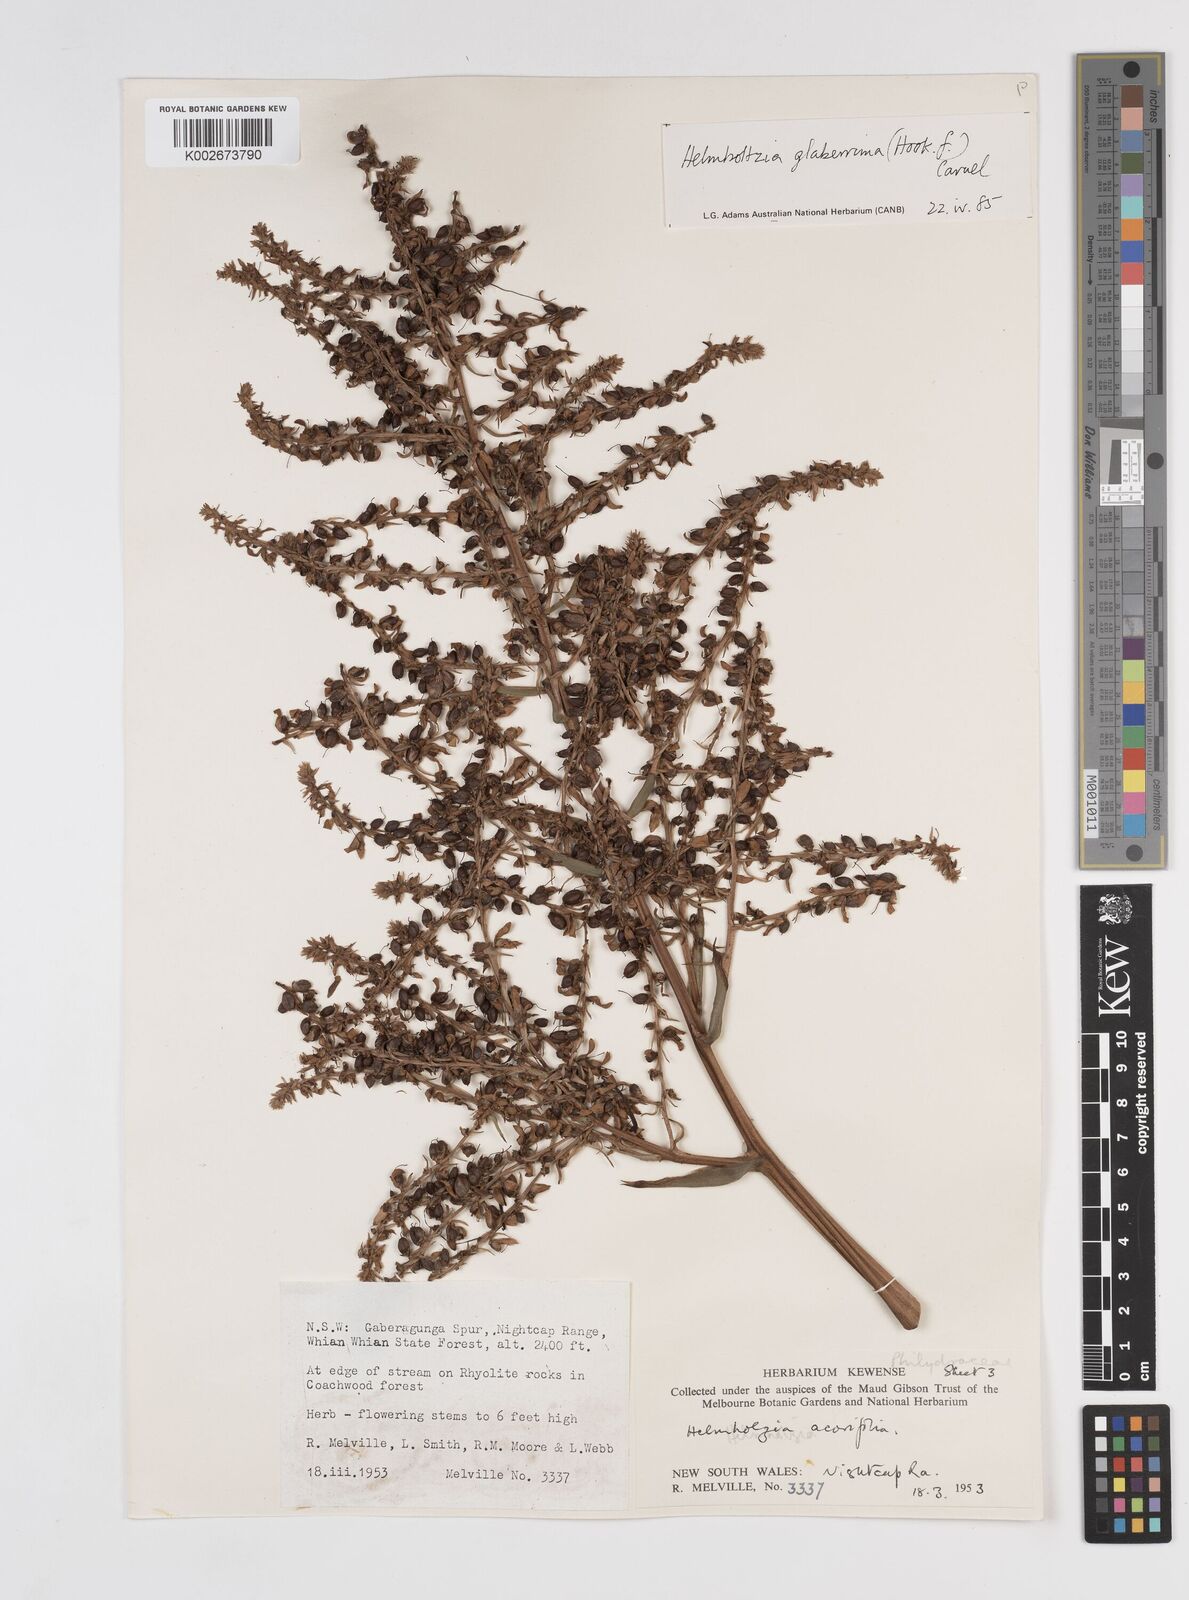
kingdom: Plantae
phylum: Tracheophyta
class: Liliopsida
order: Commelinales
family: Philydraceae
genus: Helmholtzia
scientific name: Helmholtzia glaberrima
